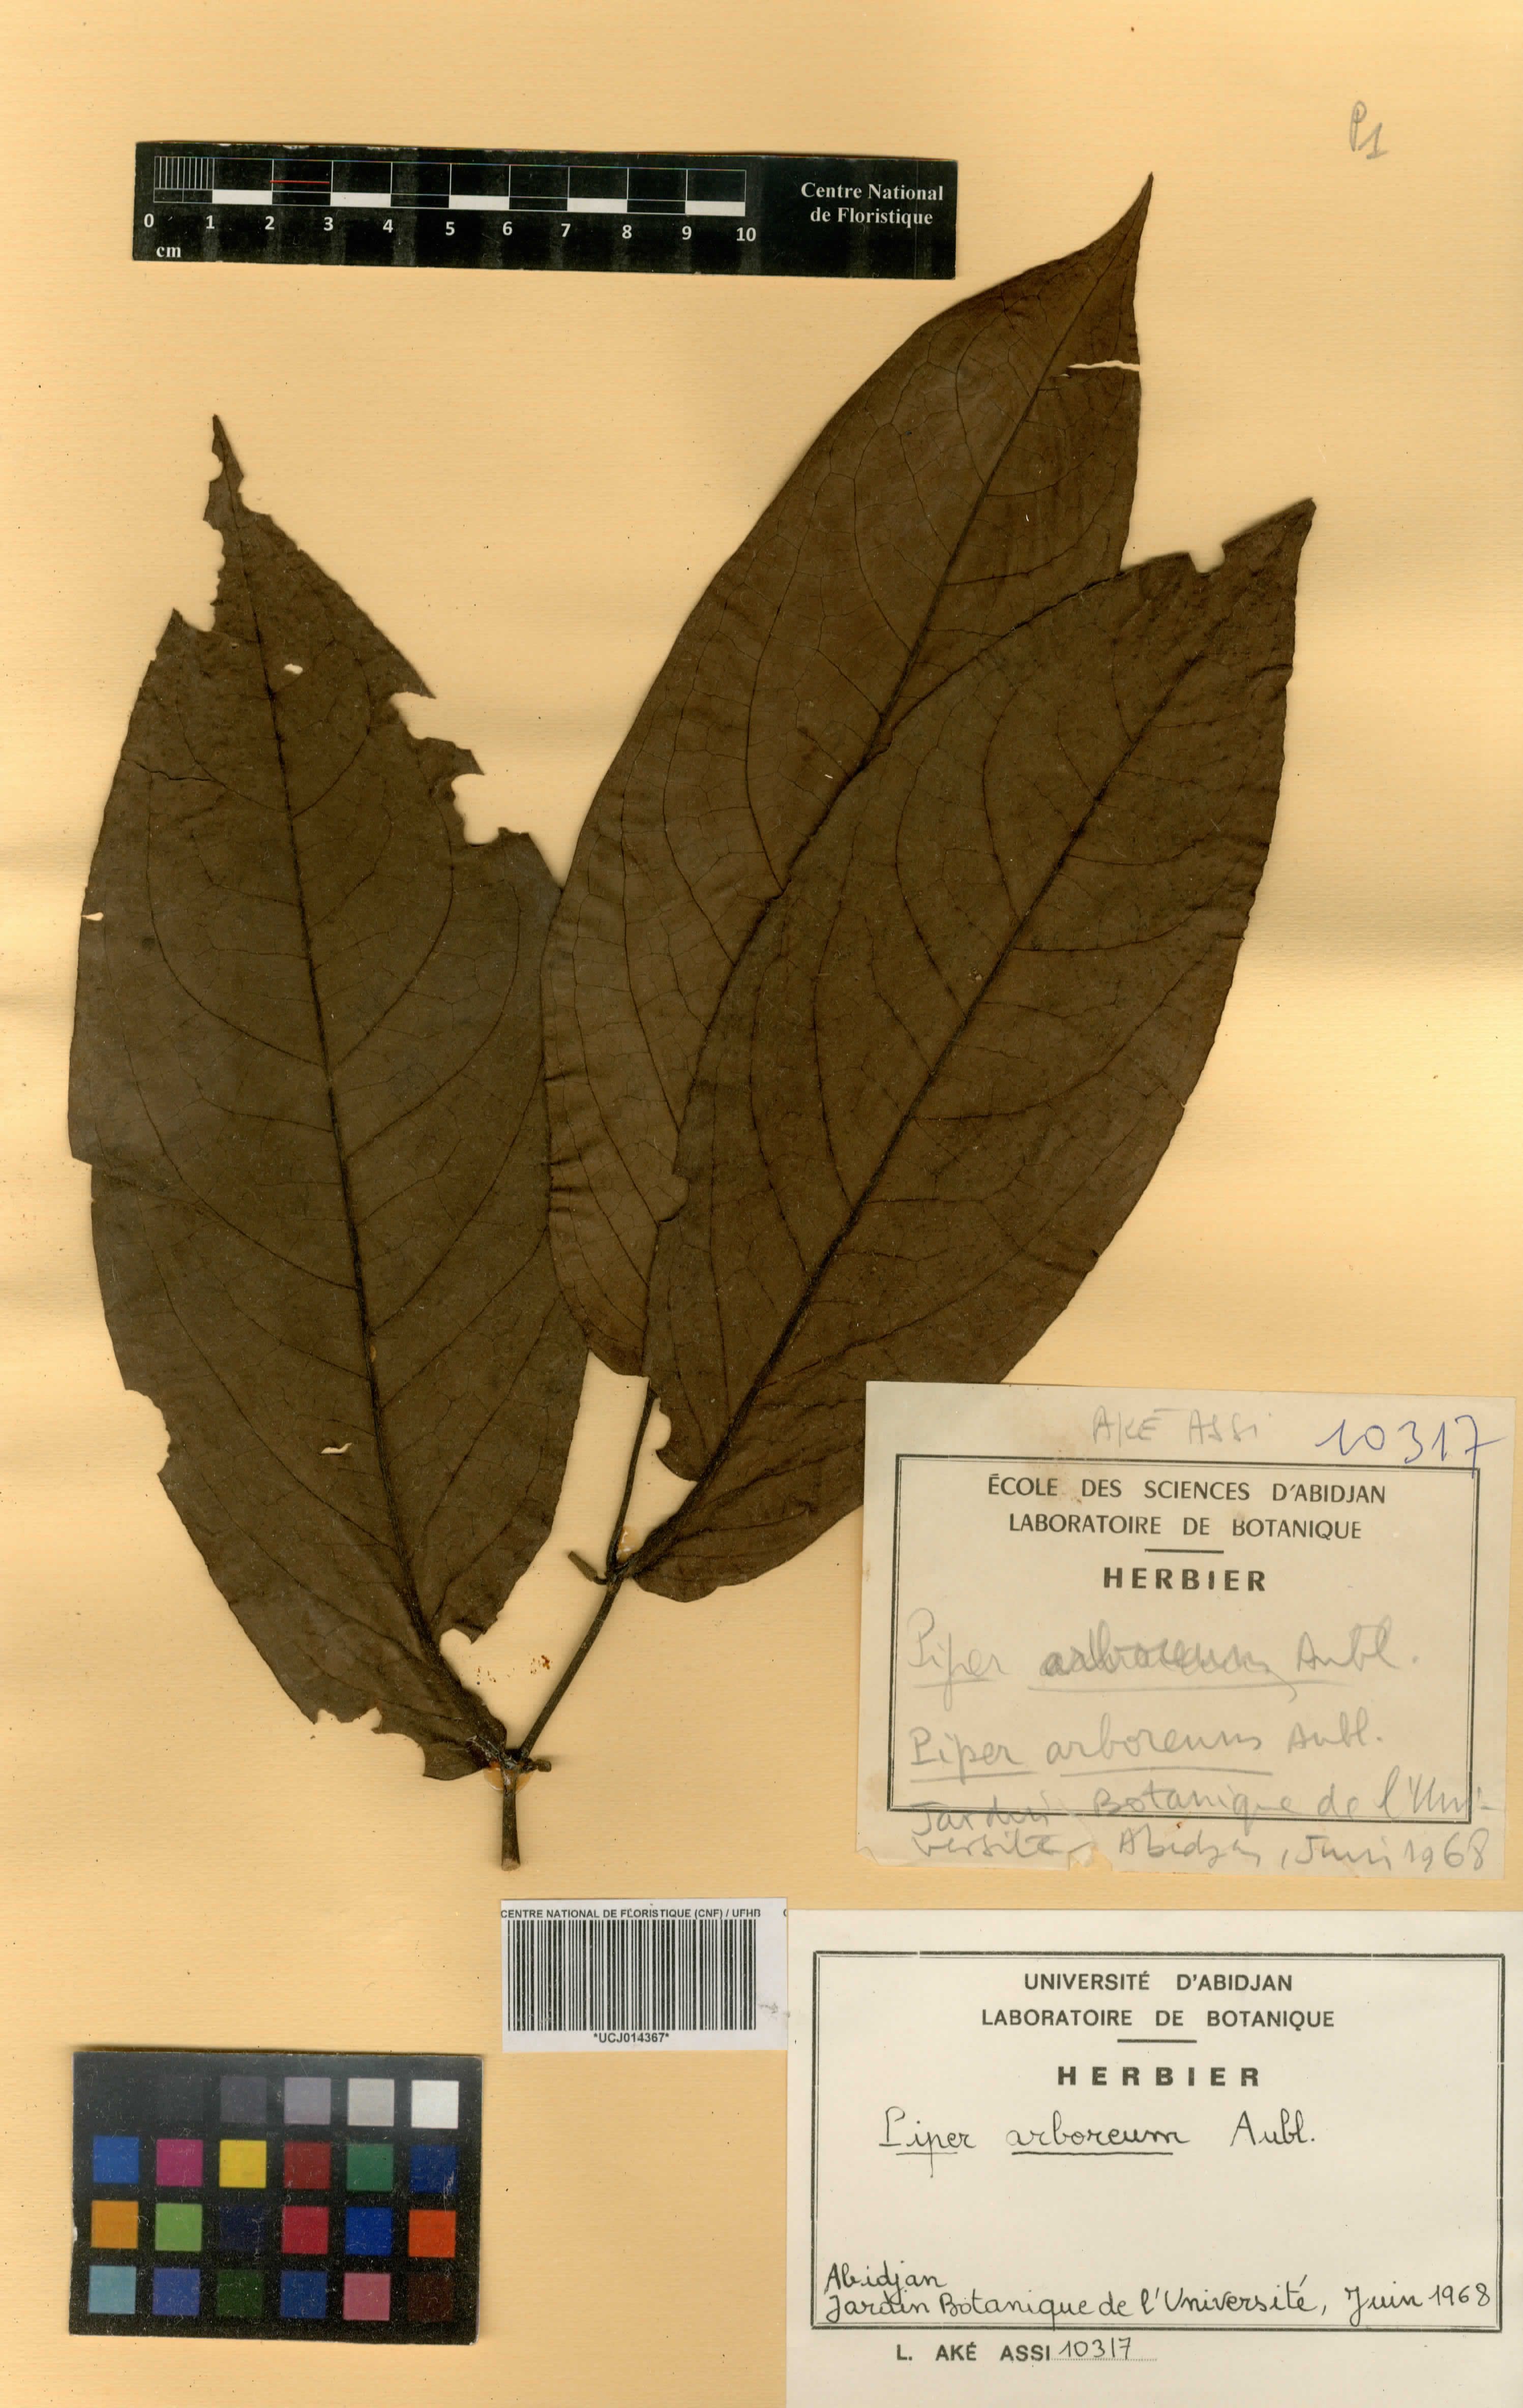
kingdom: Plantae
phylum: Tracheophyta
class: Magnoliopsida
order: Piperales
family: Piperaceae
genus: Piper
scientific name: Piper arboreum
